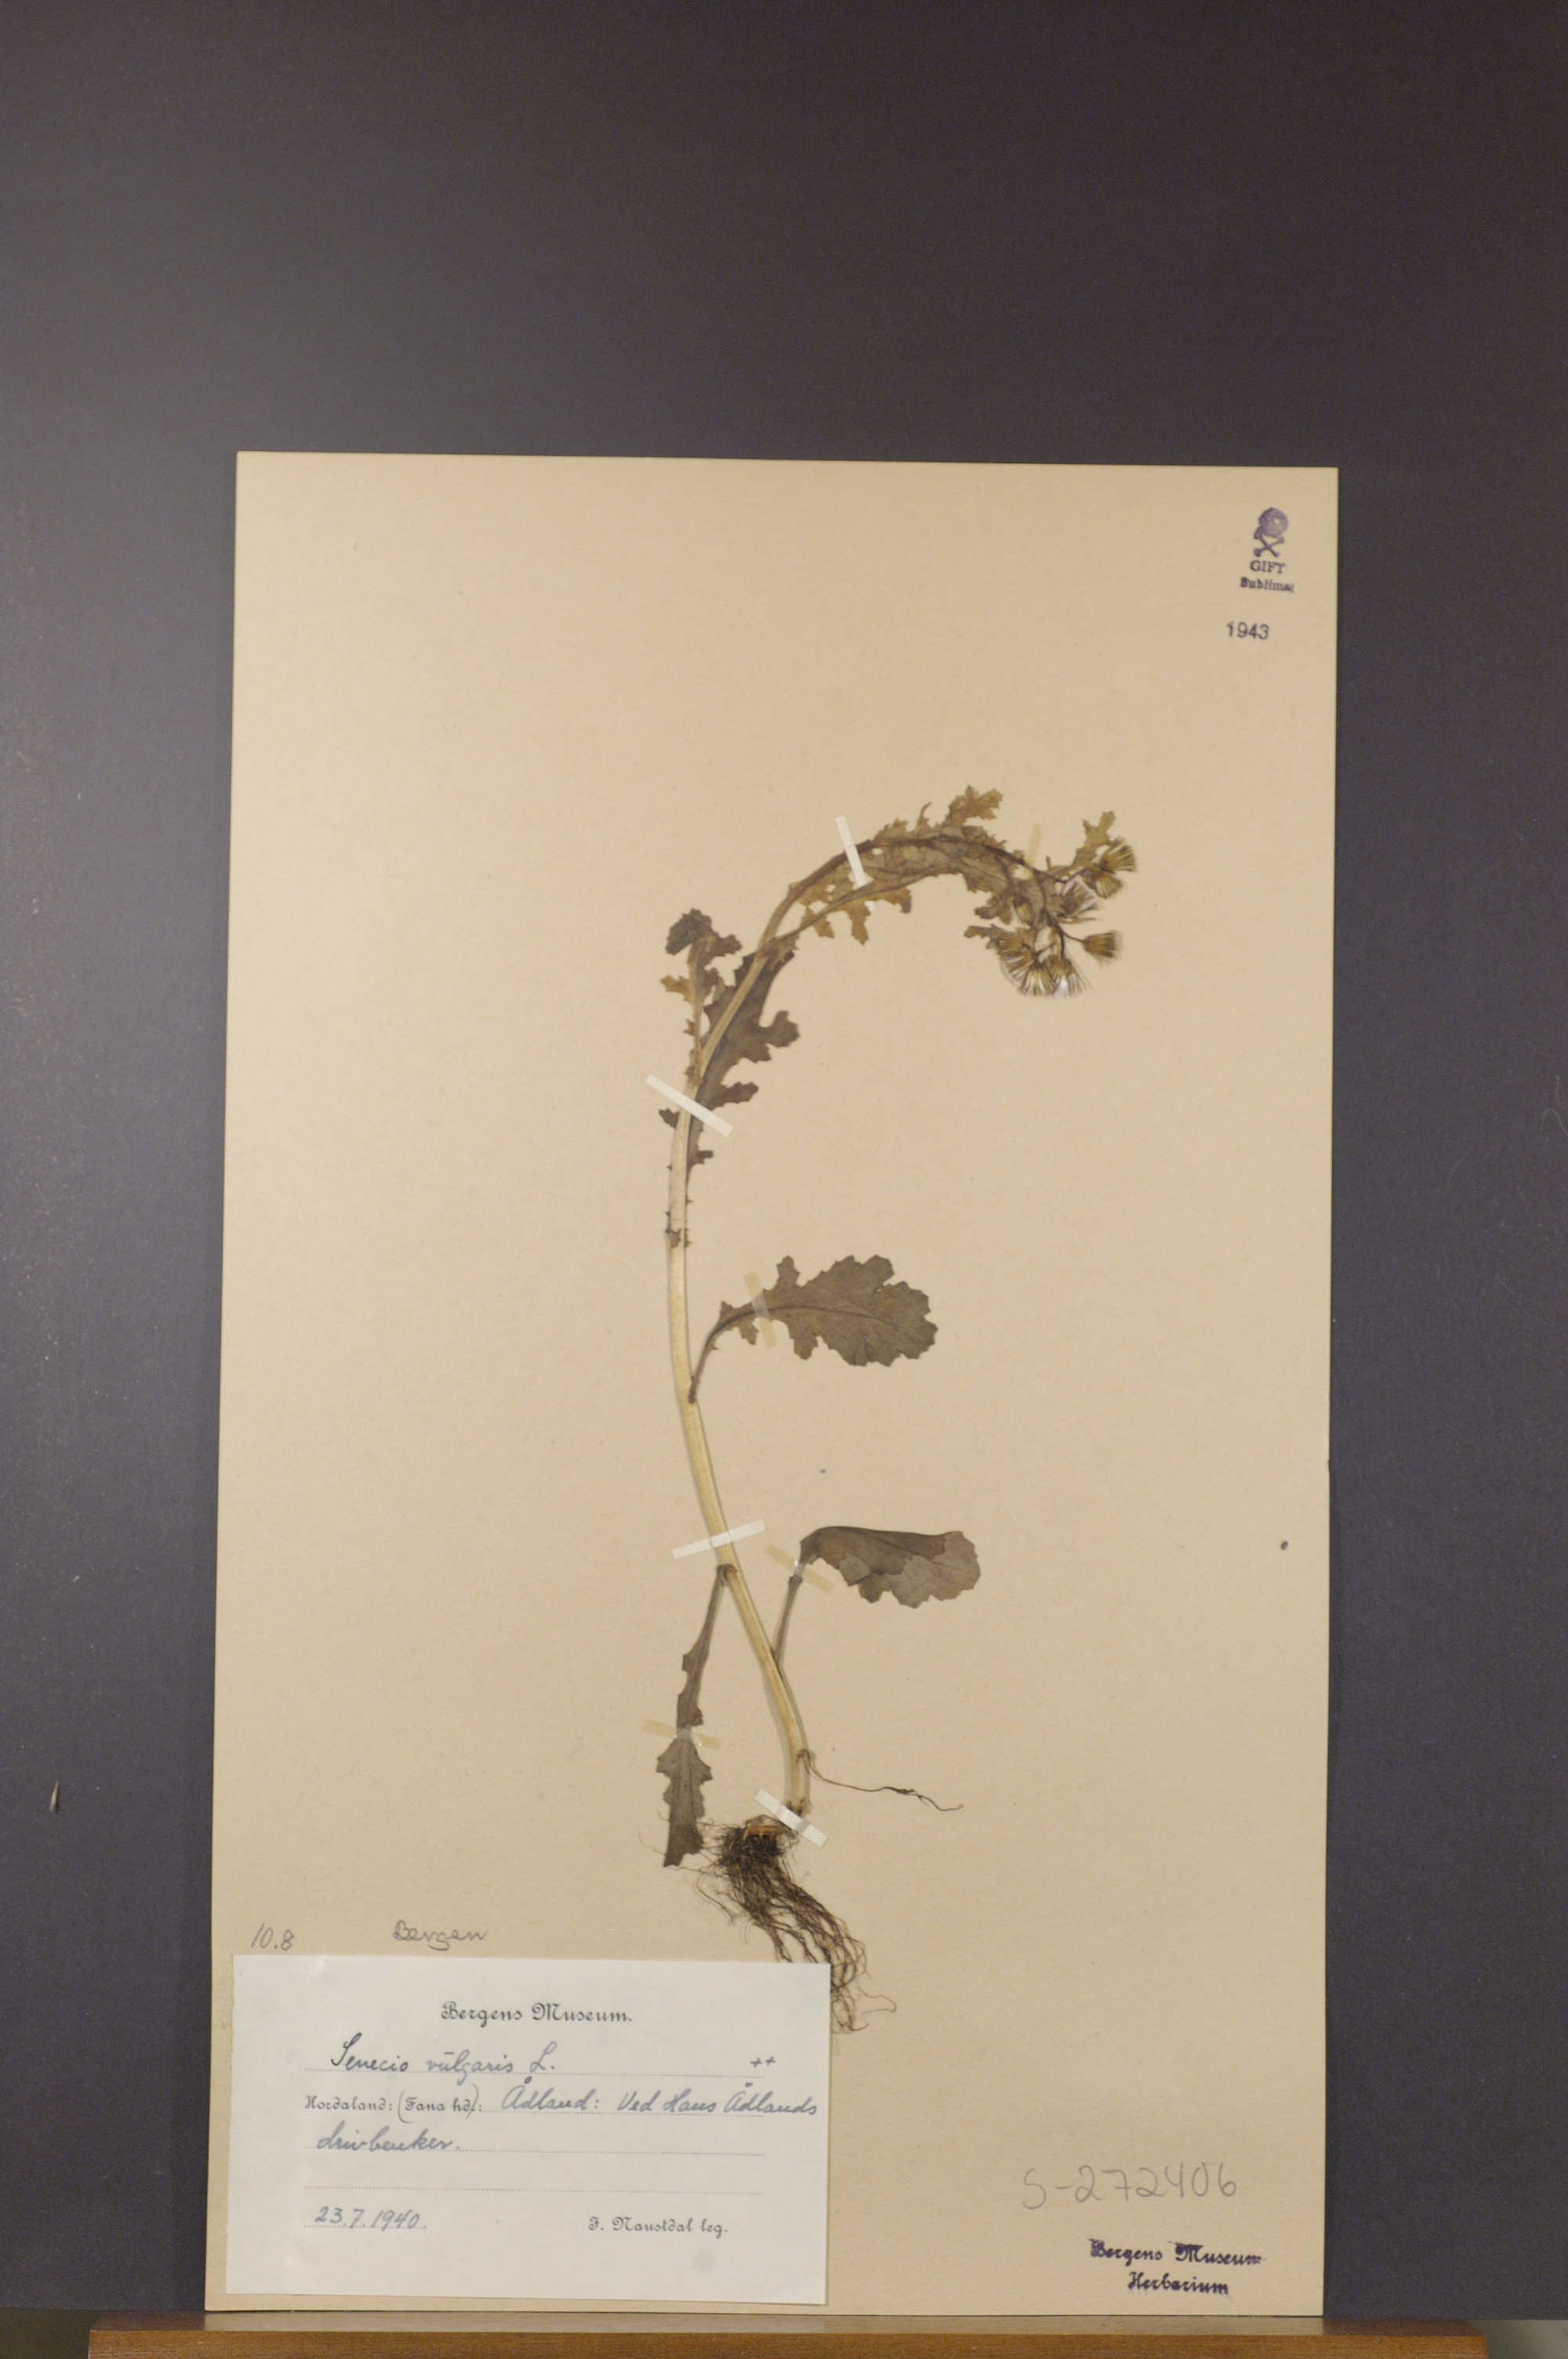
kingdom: Plantae
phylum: Tracheophyta
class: Magnoliopsida
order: Asterales
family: Asteraceae
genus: Senecio
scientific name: Senecio vulgaris
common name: Old-man-in-the-spring
